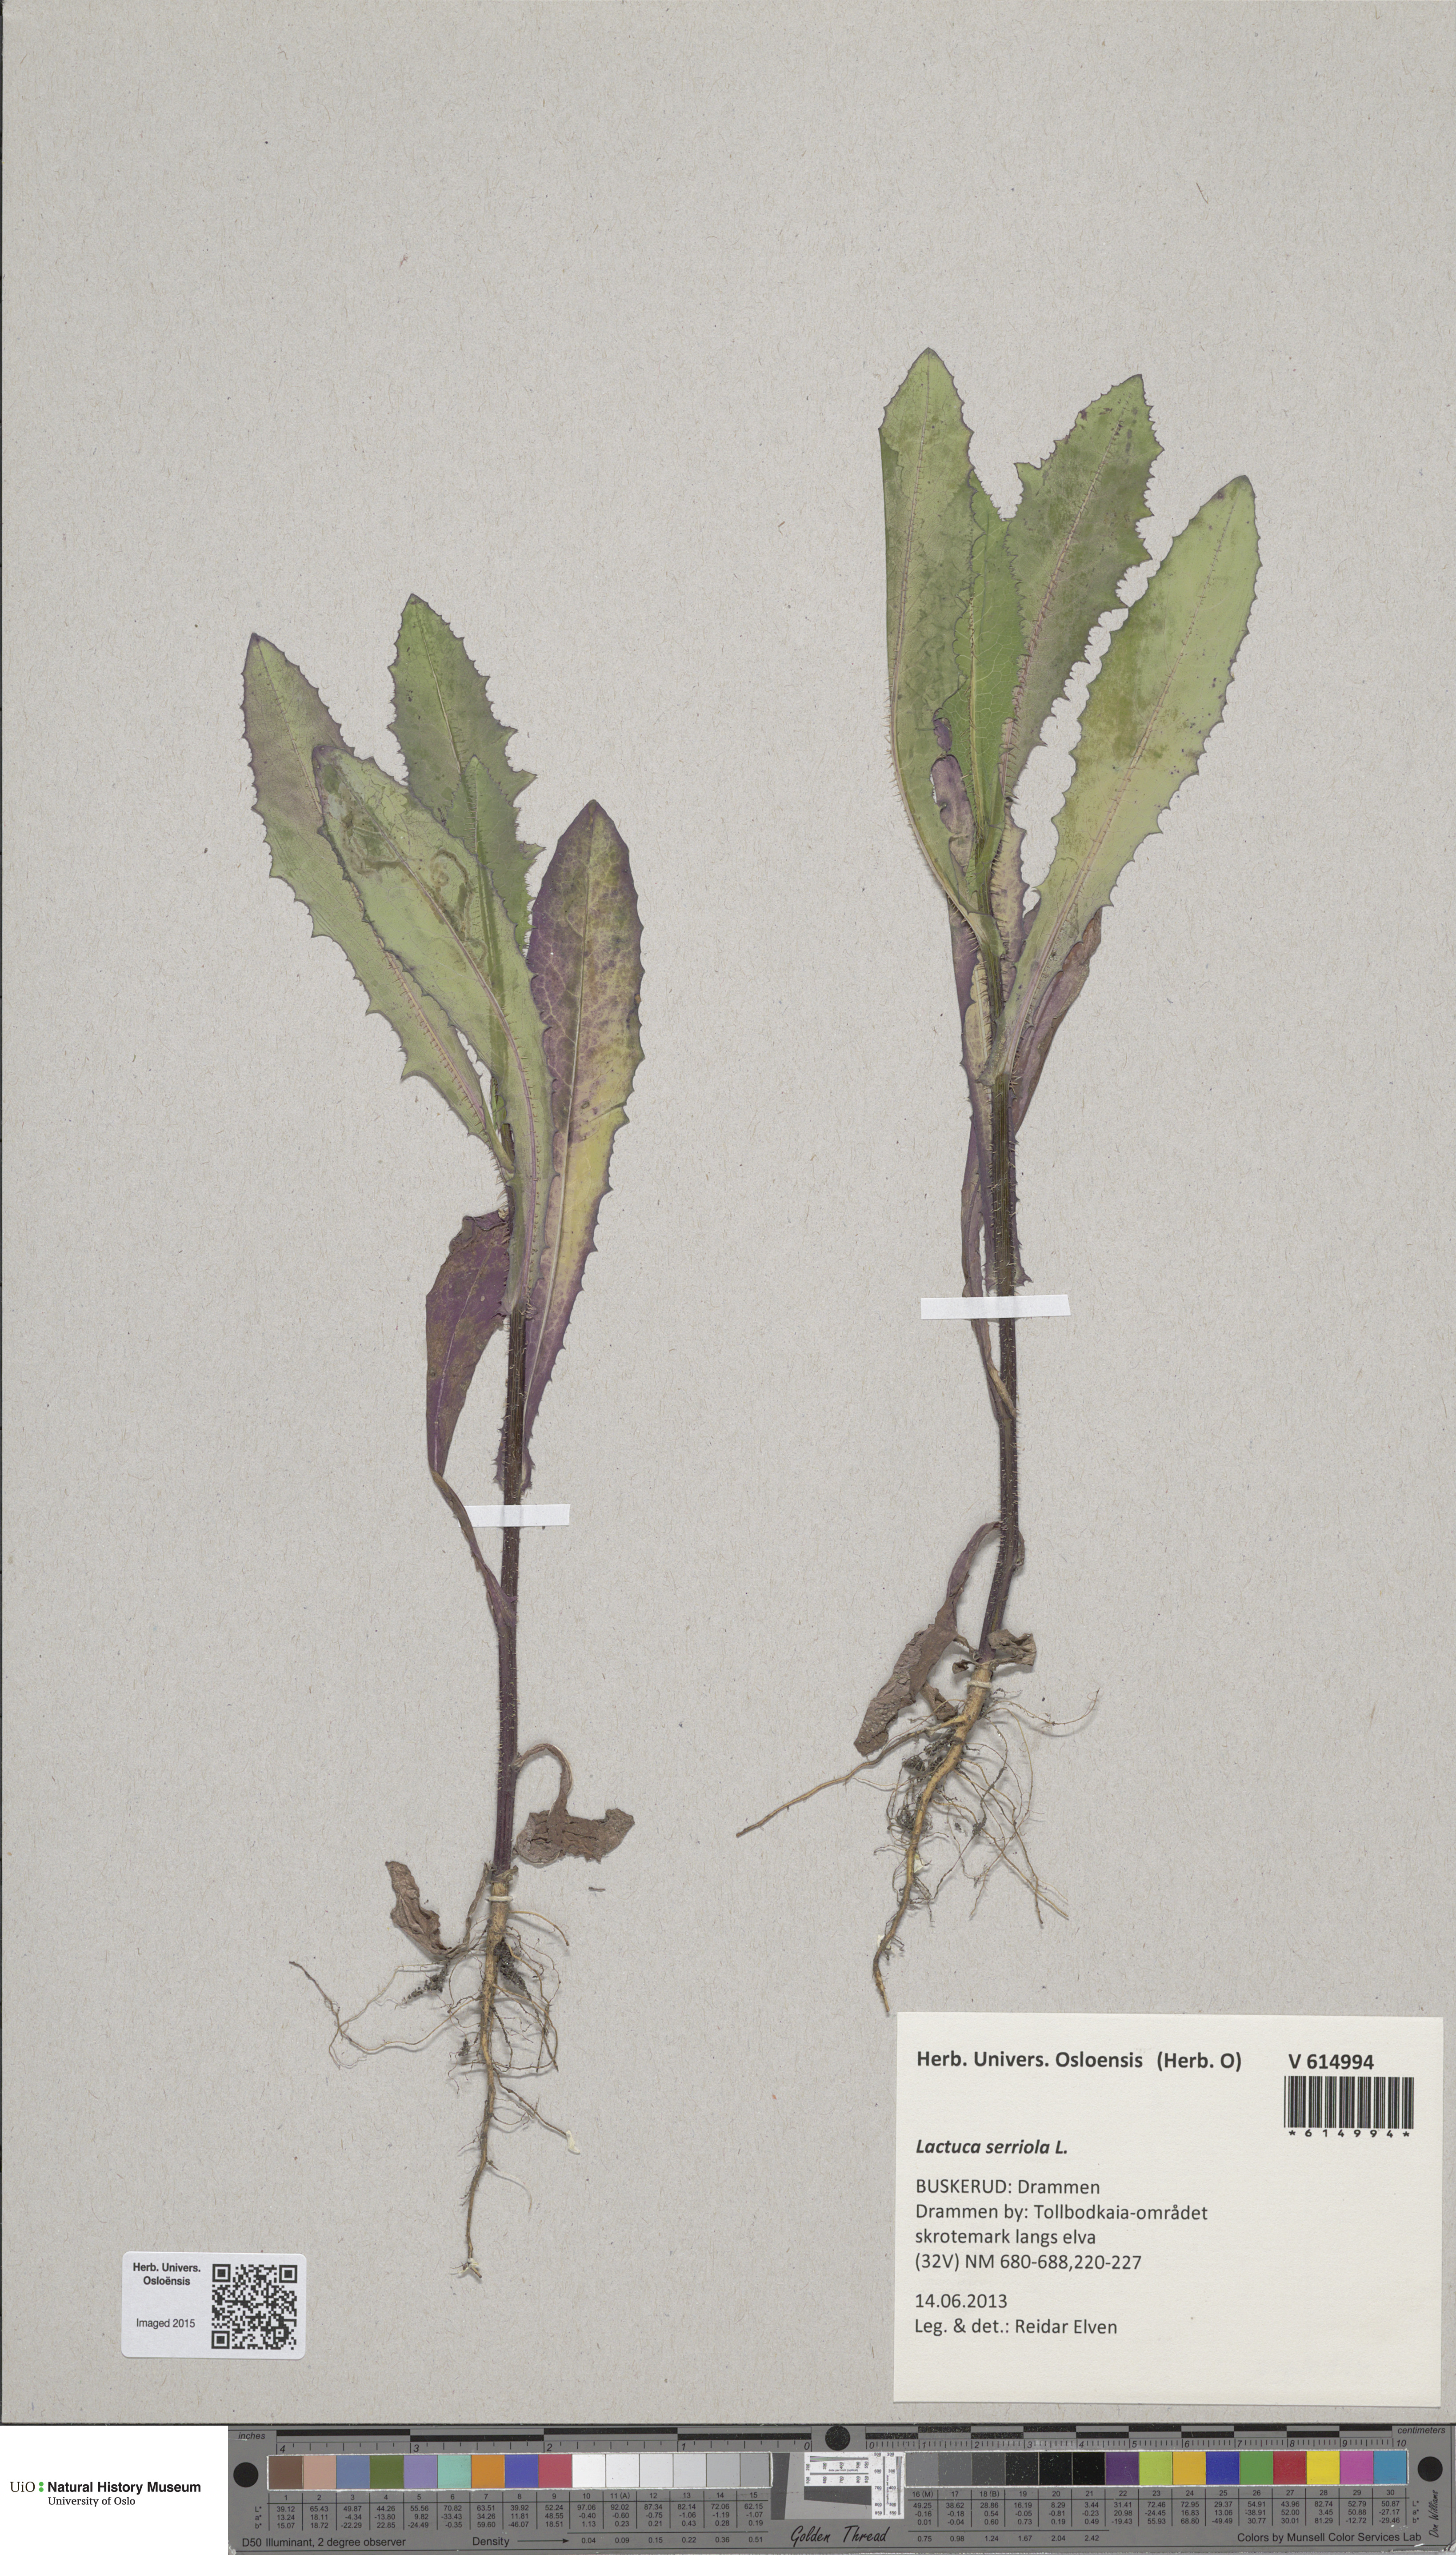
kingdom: Plantae
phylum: Tracheophyta
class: Magnoliopsida
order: Asterales
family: Asteraceae
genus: Lactuca
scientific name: Lactuca serriola
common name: Prickly lettuce
